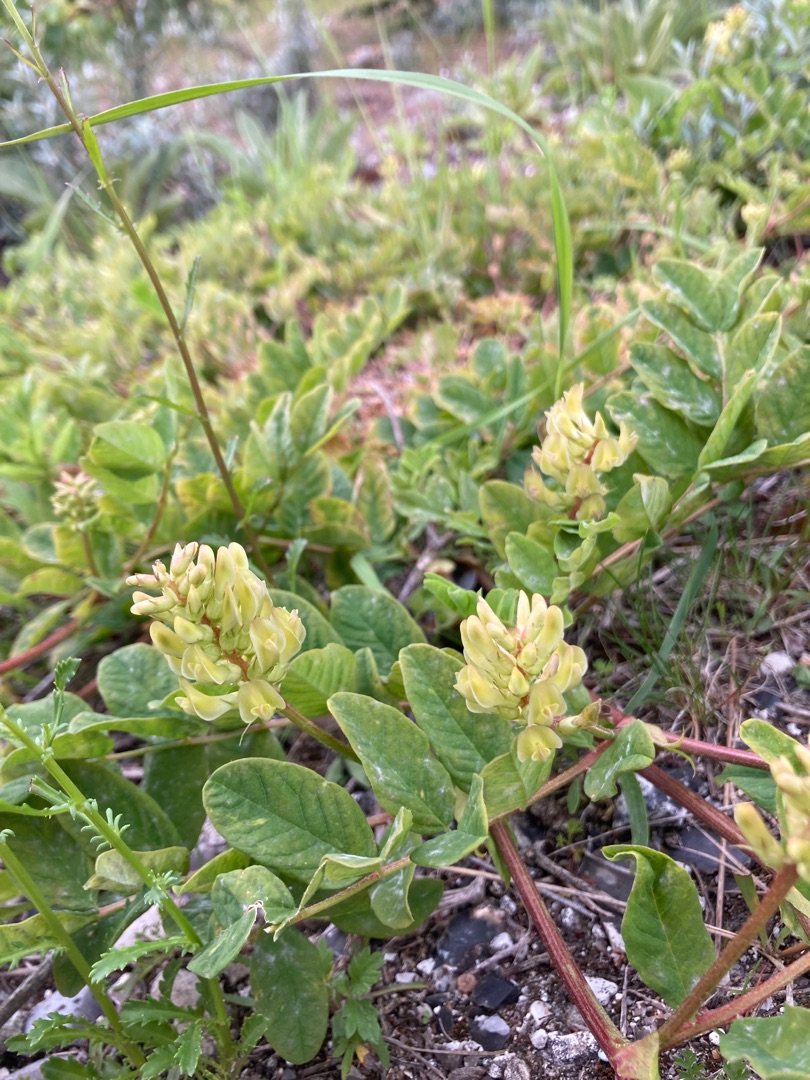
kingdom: Plantae
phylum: Tracheophyta
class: Magnoliopsida
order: Fabales
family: Fabaceae
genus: Astragalus
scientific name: Astragalus glycyphyllos
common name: Sød astragel
